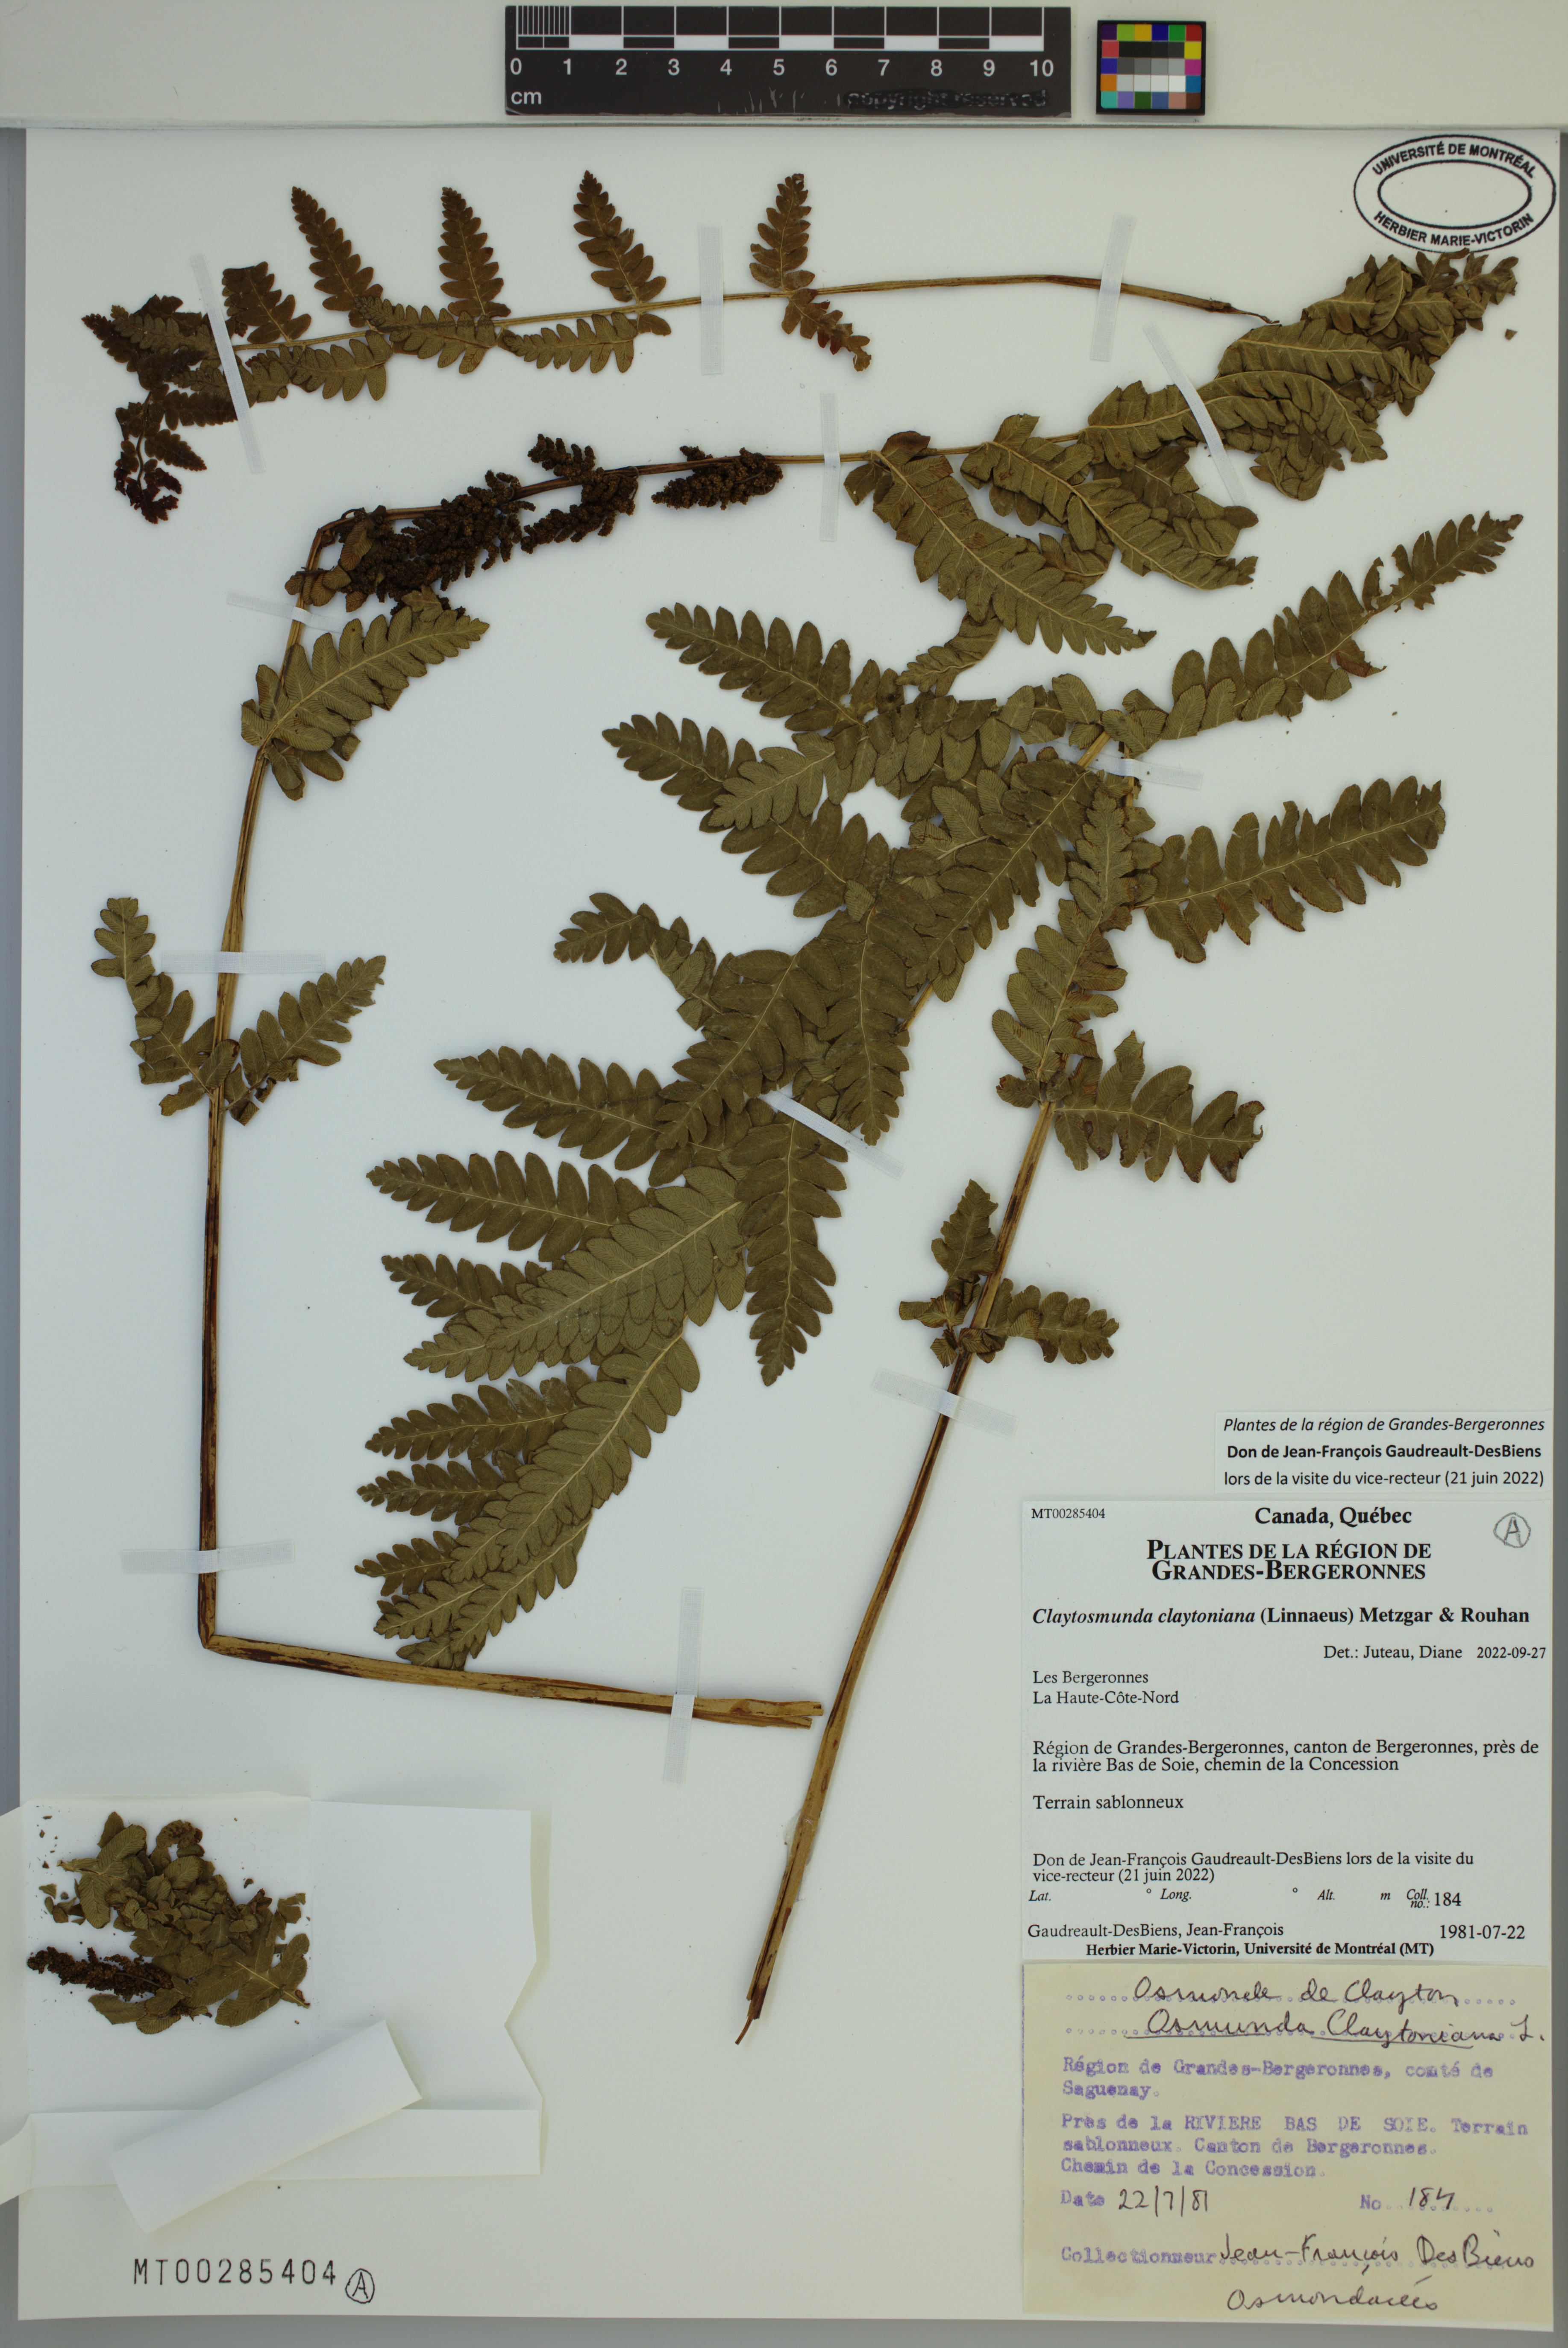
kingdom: Plantae
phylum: Tracheophyta
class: Polypodiopsida
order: Osmundales
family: Osmundaceae
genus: Claytosmunda
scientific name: Claytosmunda claytoniana
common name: Clayton's fern
